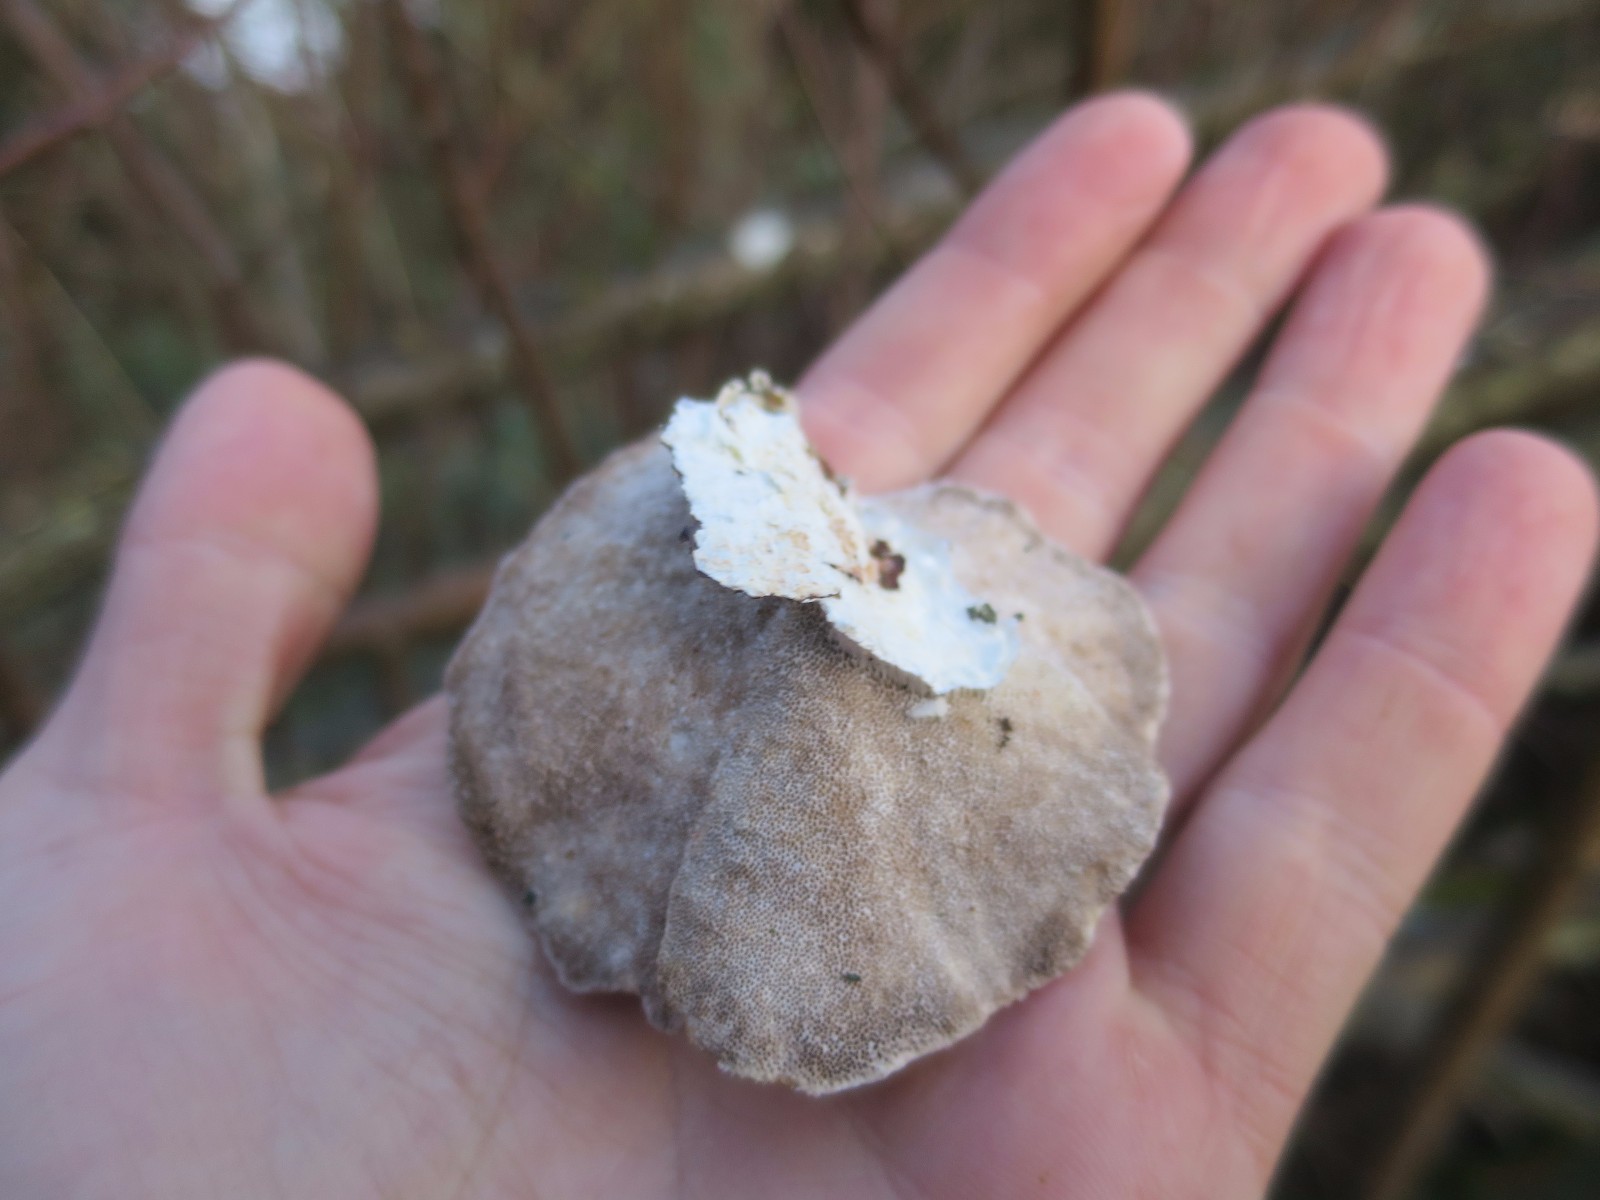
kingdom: Fungi
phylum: Basidiomycota
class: Agaricomycetes
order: Polyporales
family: Polyporaceae
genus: Trametes
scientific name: Trametes hirsuta
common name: håret læderporesvamp
